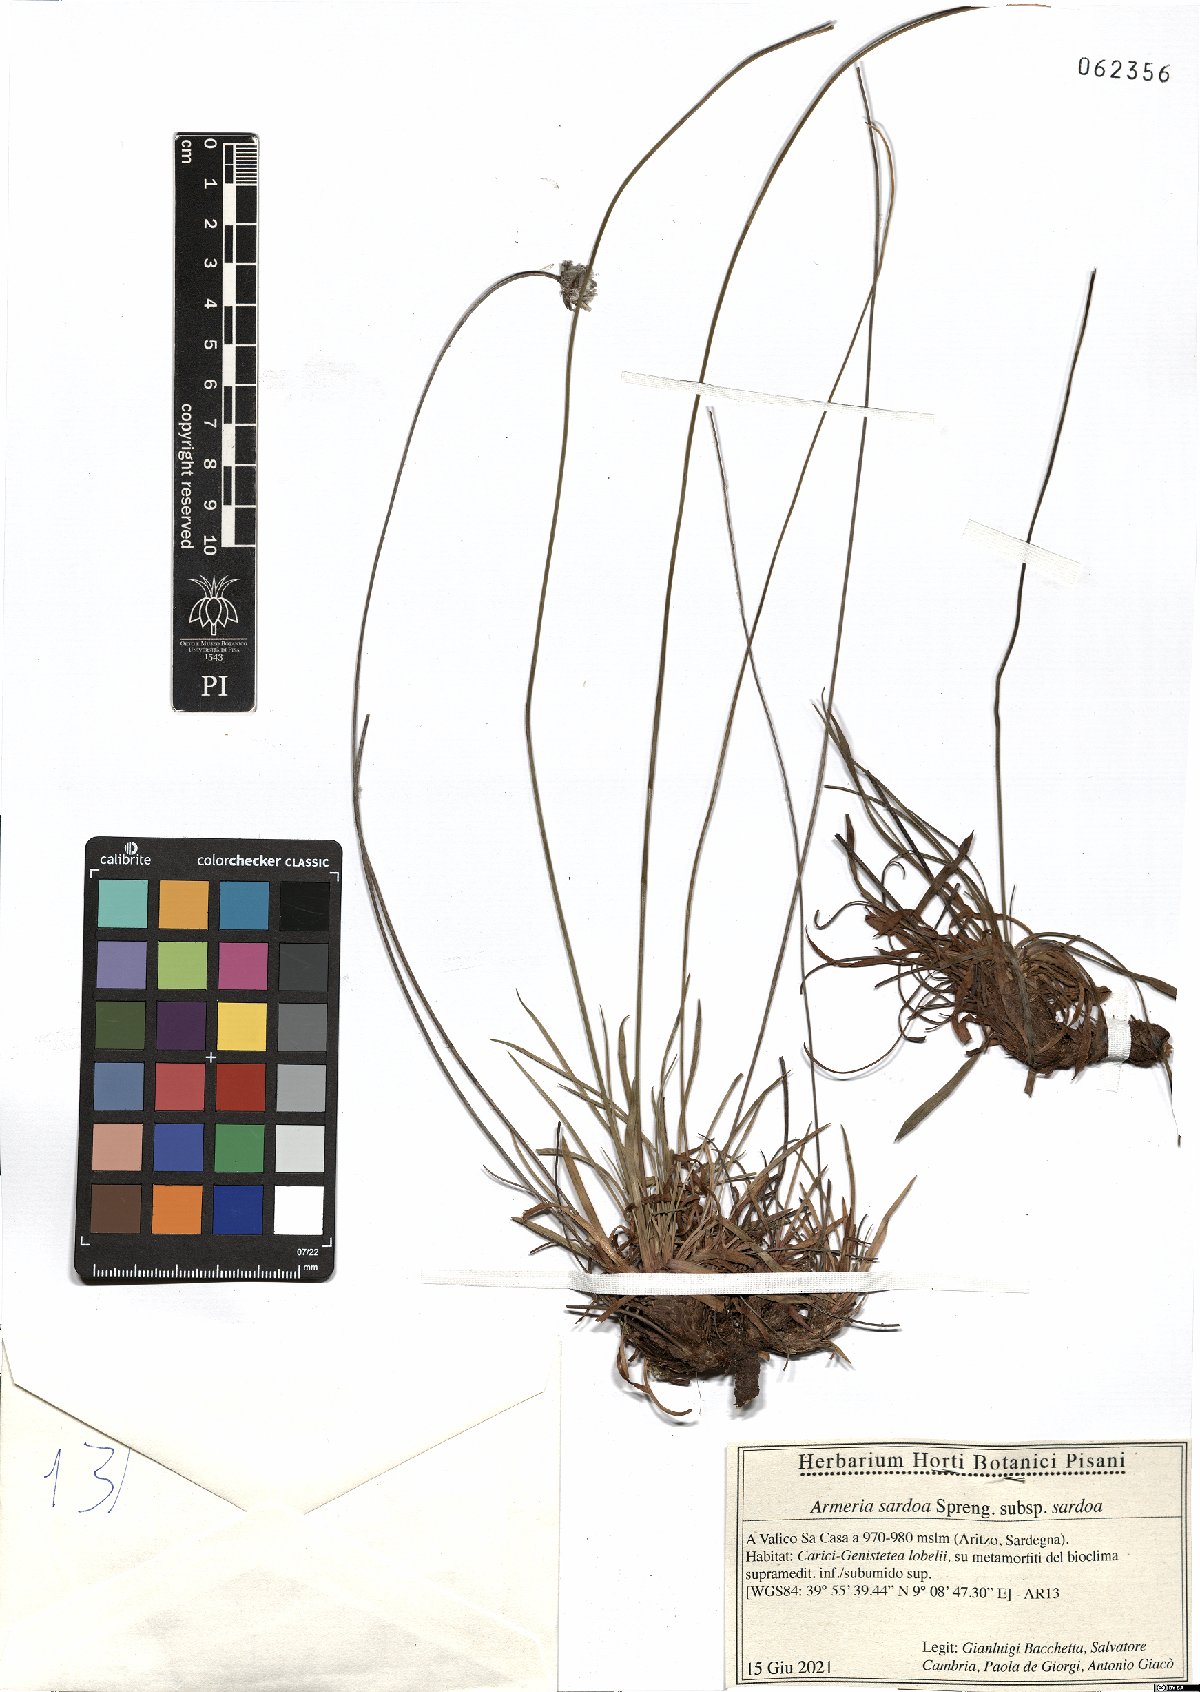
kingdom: Plantae
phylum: Tracheophyta
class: Magnoliopsida
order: Caryophyllales
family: Plumbaginaceae
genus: Armeria
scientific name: Armeria sardoa
